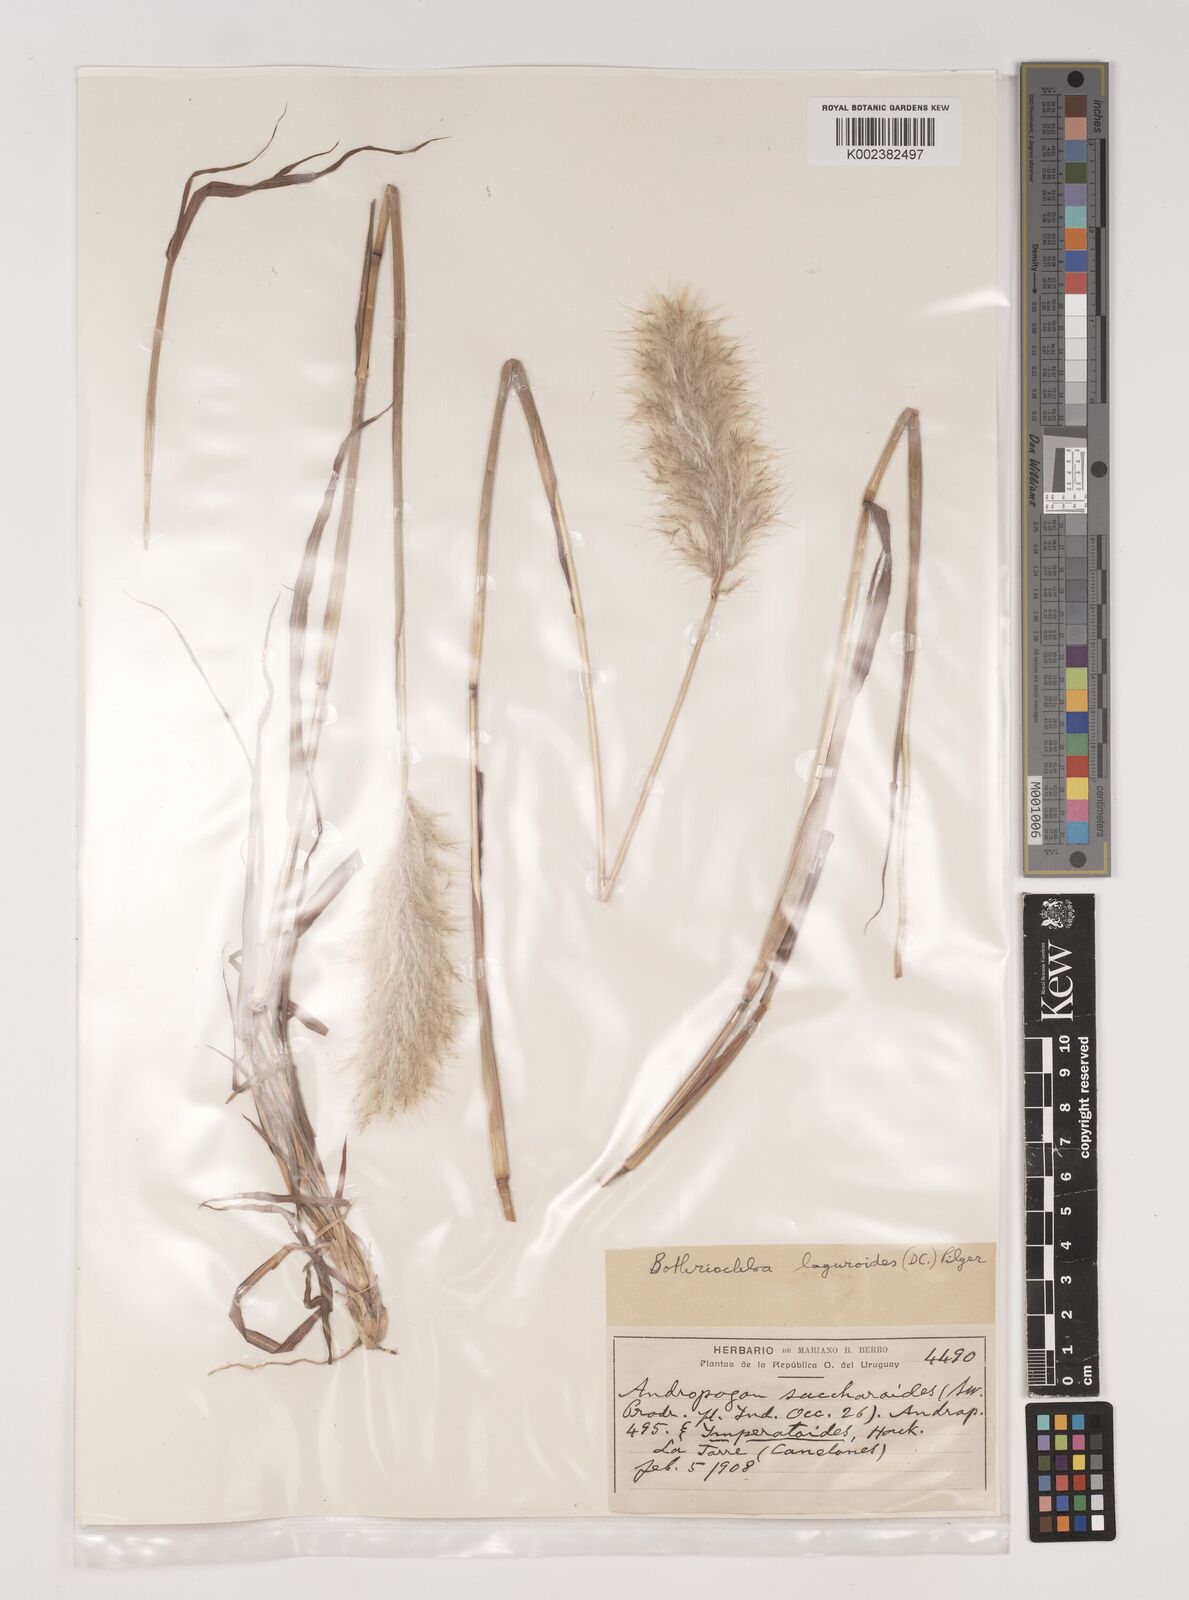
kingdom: Plantae
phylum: Tracheophyta
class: Liliopsida
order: Poales
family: Poaceae
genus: Bothriochloa
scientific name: Bothriochloa laguroides
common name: Silver bluestem
